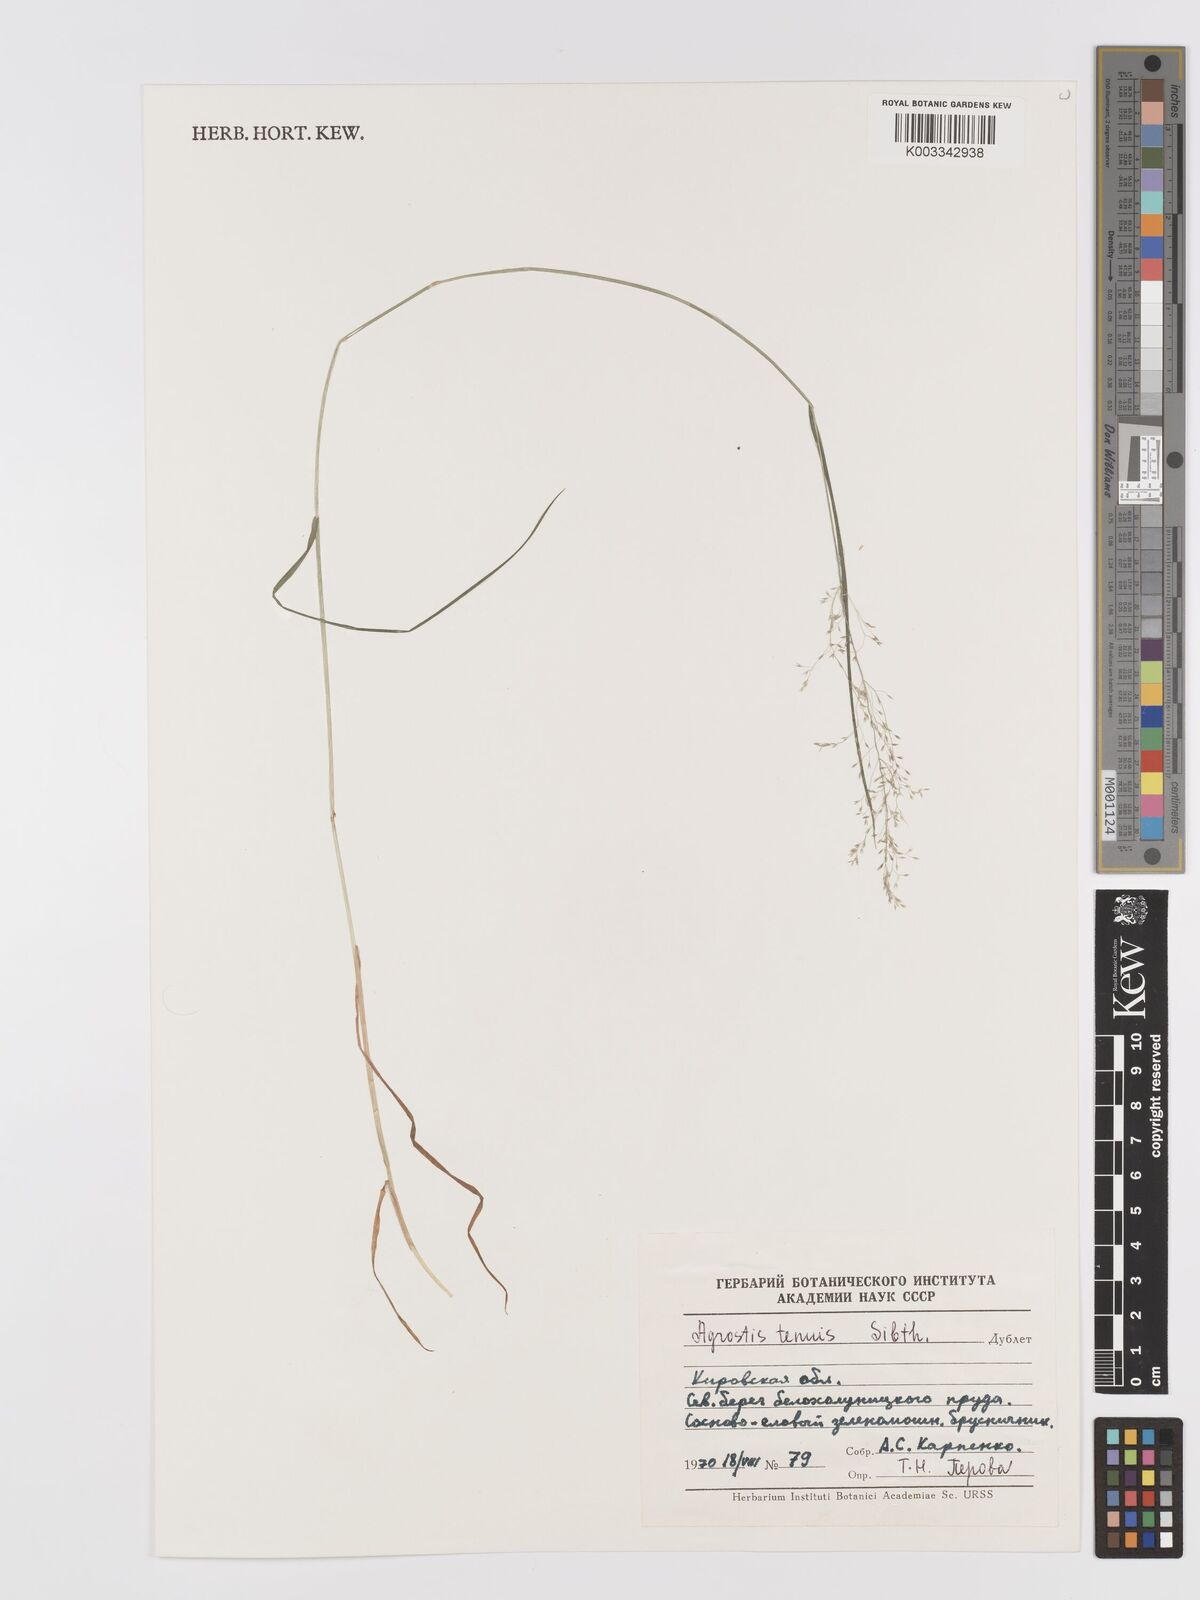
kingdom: Plantae
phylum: Tracheophyta
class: Liliopsida
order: Poales
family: Poaceae
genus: Agrostis
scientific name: Agrostis capillaris
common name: Colonial bentgrass
